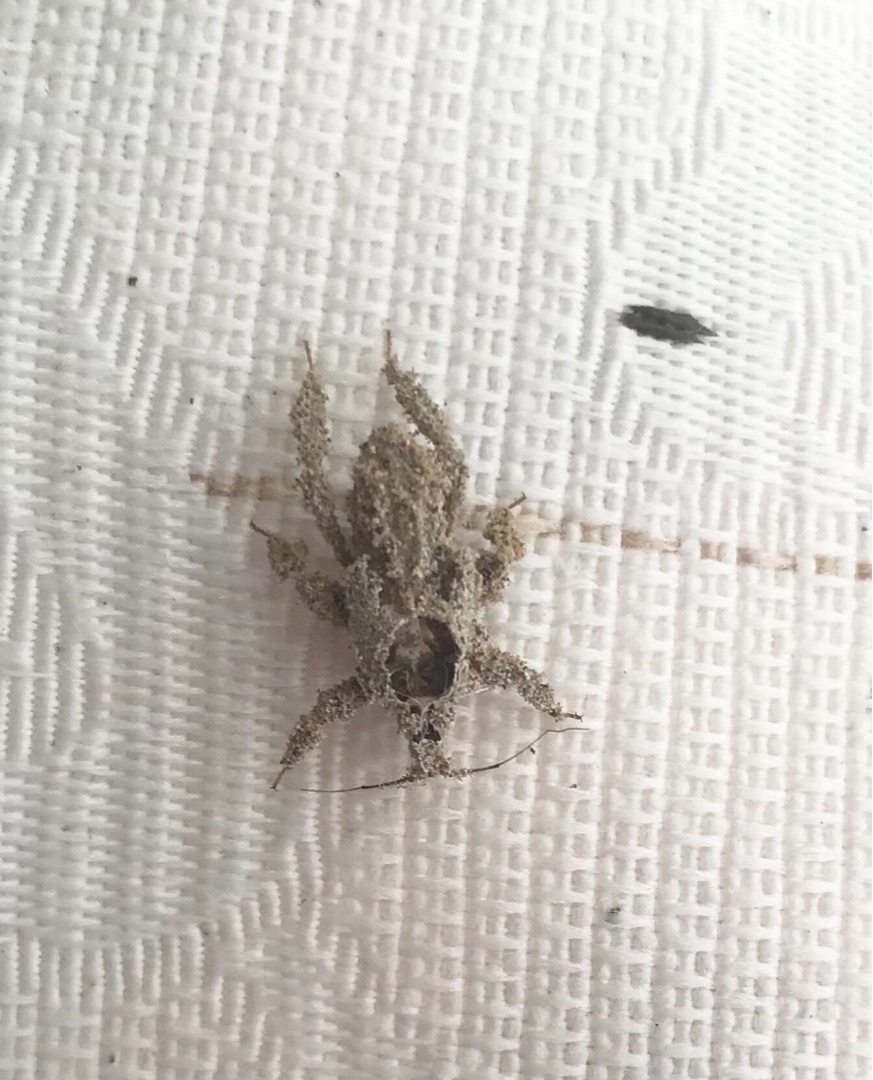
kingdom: Animalia
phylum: Arthropoda
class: Insecta
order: Hemiptera
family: Reduviidae
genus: Reduvius
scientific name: Reduvius personatus
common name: Skarntæge
